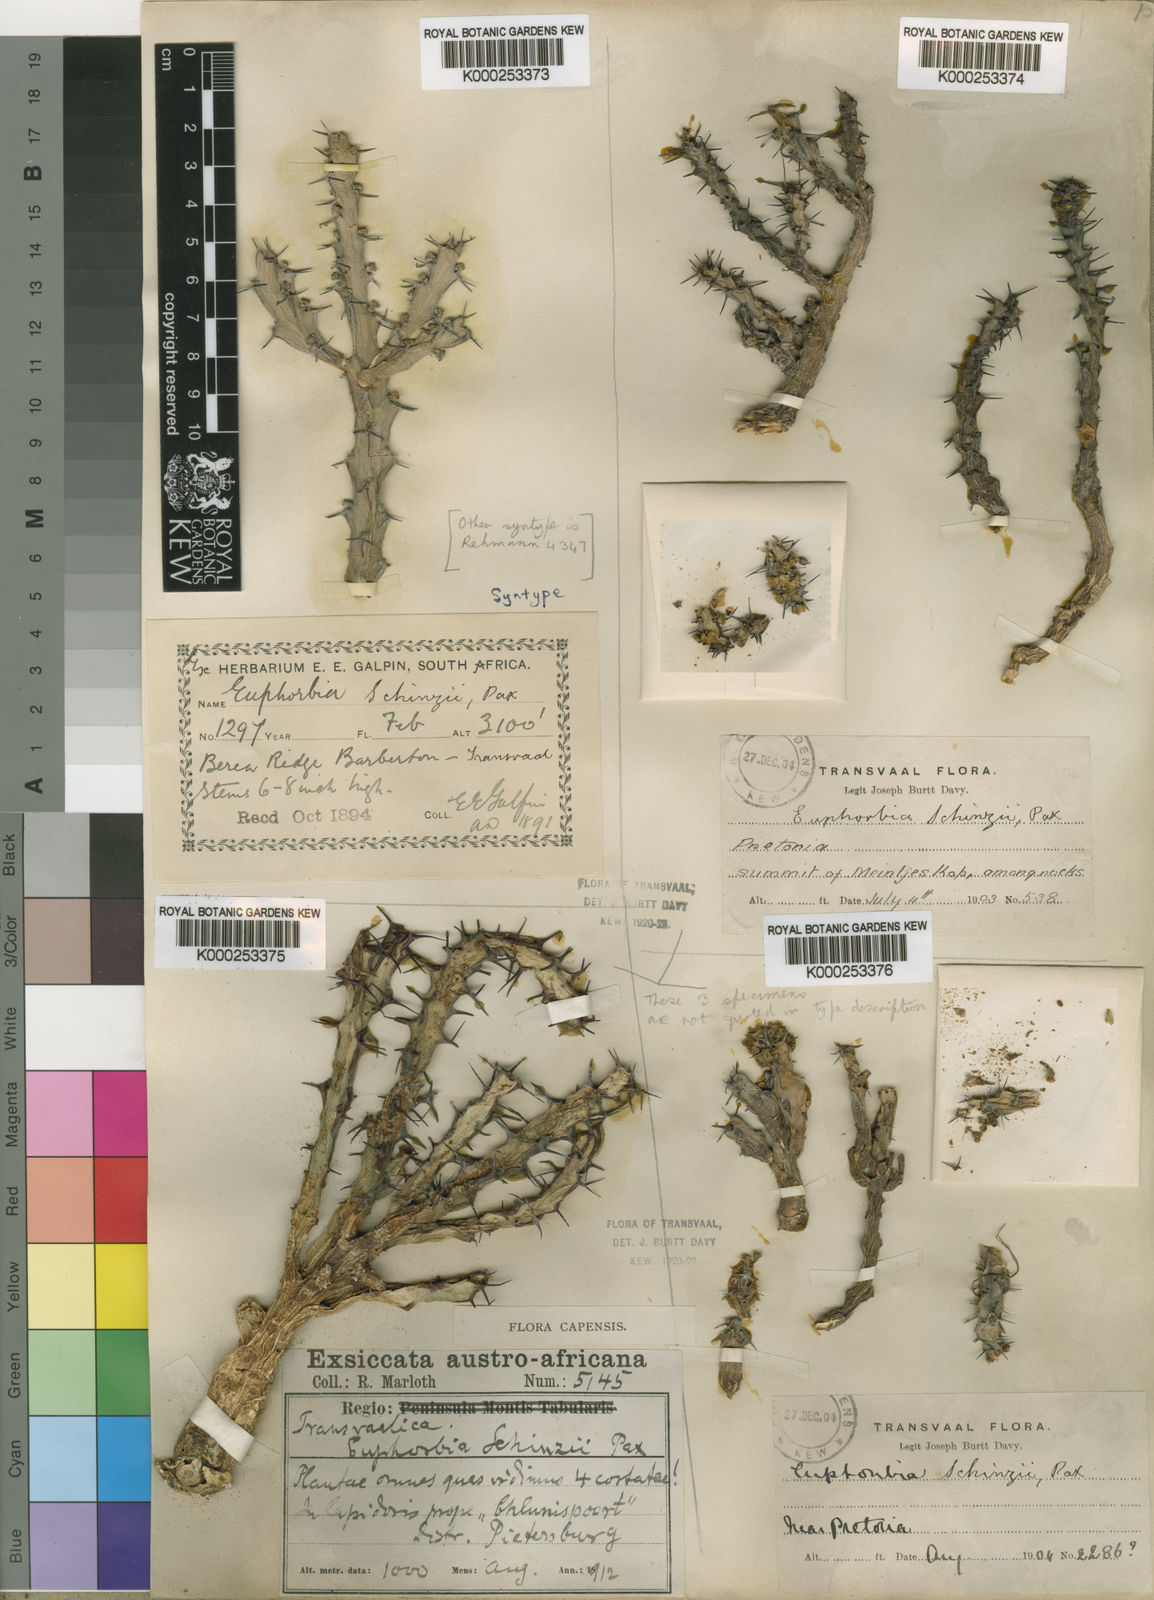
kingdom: Plantae
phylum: Tracheophyta
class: Magnoliopsida
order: Malpighiales
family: Euphorbiaceae
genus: Euphorbia
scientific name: Euphorbia schinzii
